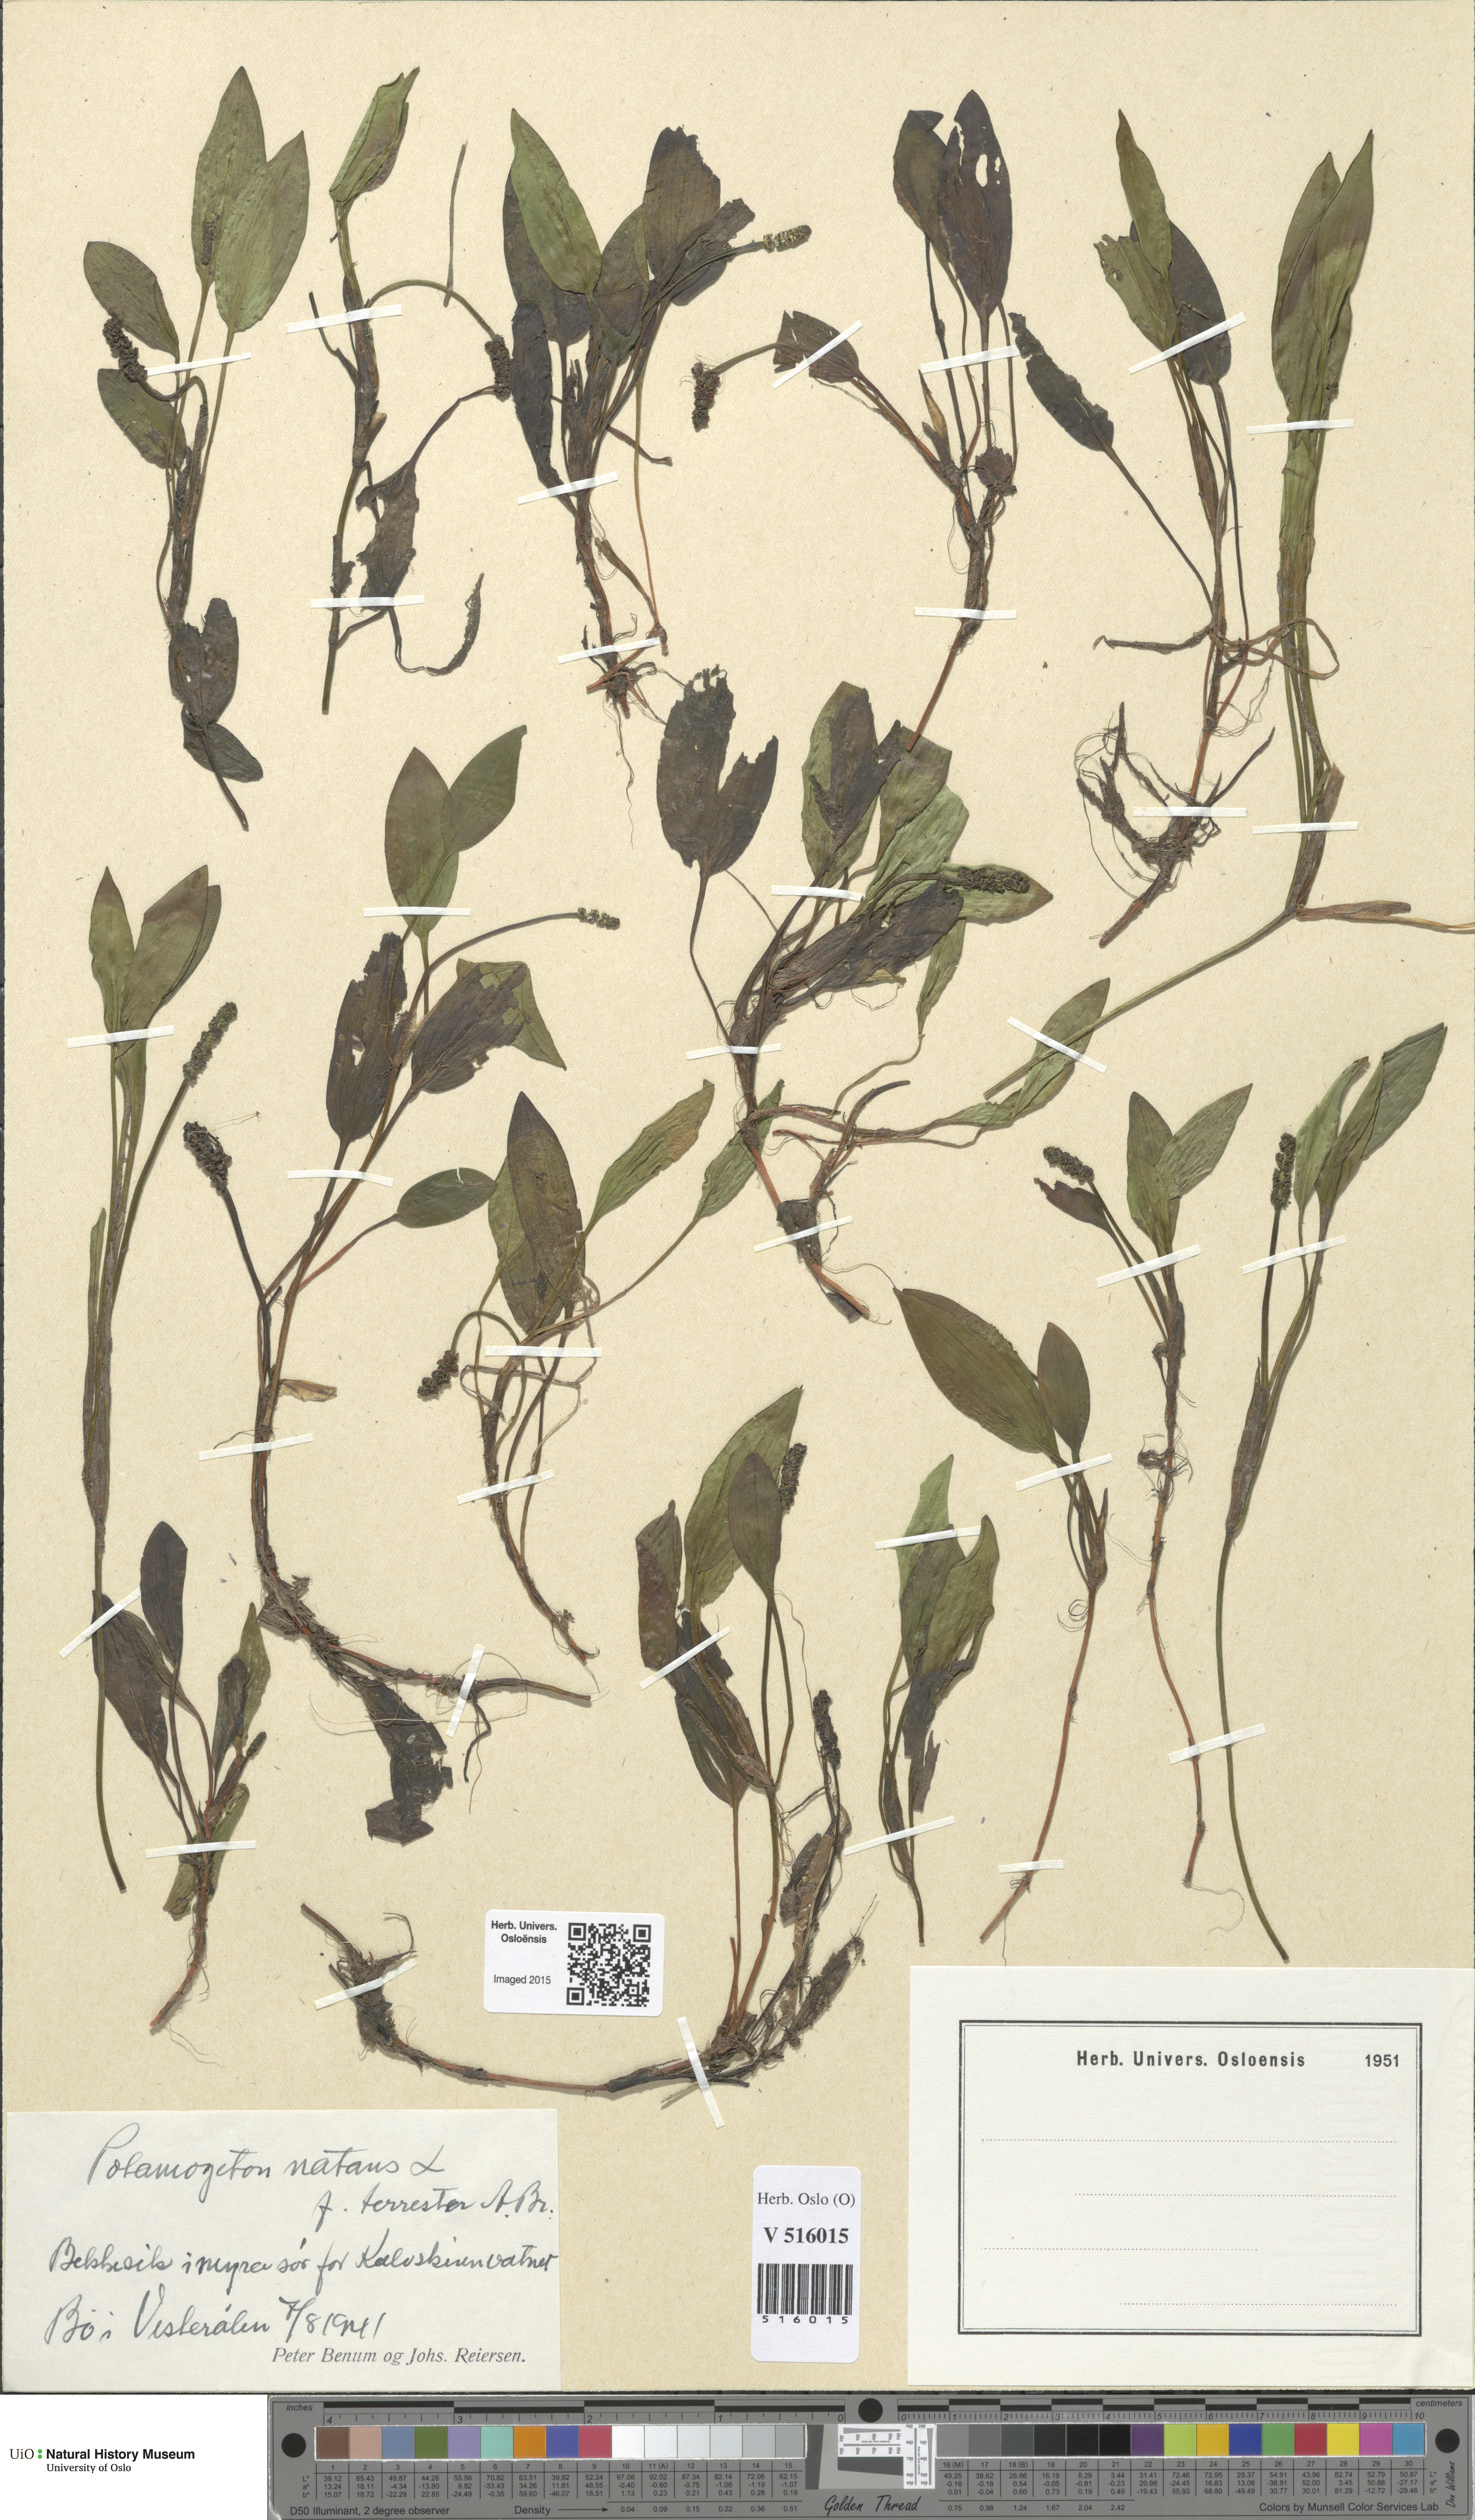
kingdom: Plantae
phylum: Tracheophyta
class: Liliopsida
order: Alismatales
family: Potamogetonaceae
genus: Potamogeton
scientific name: Potamogeton polygonifolius
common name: Bog pondweed
